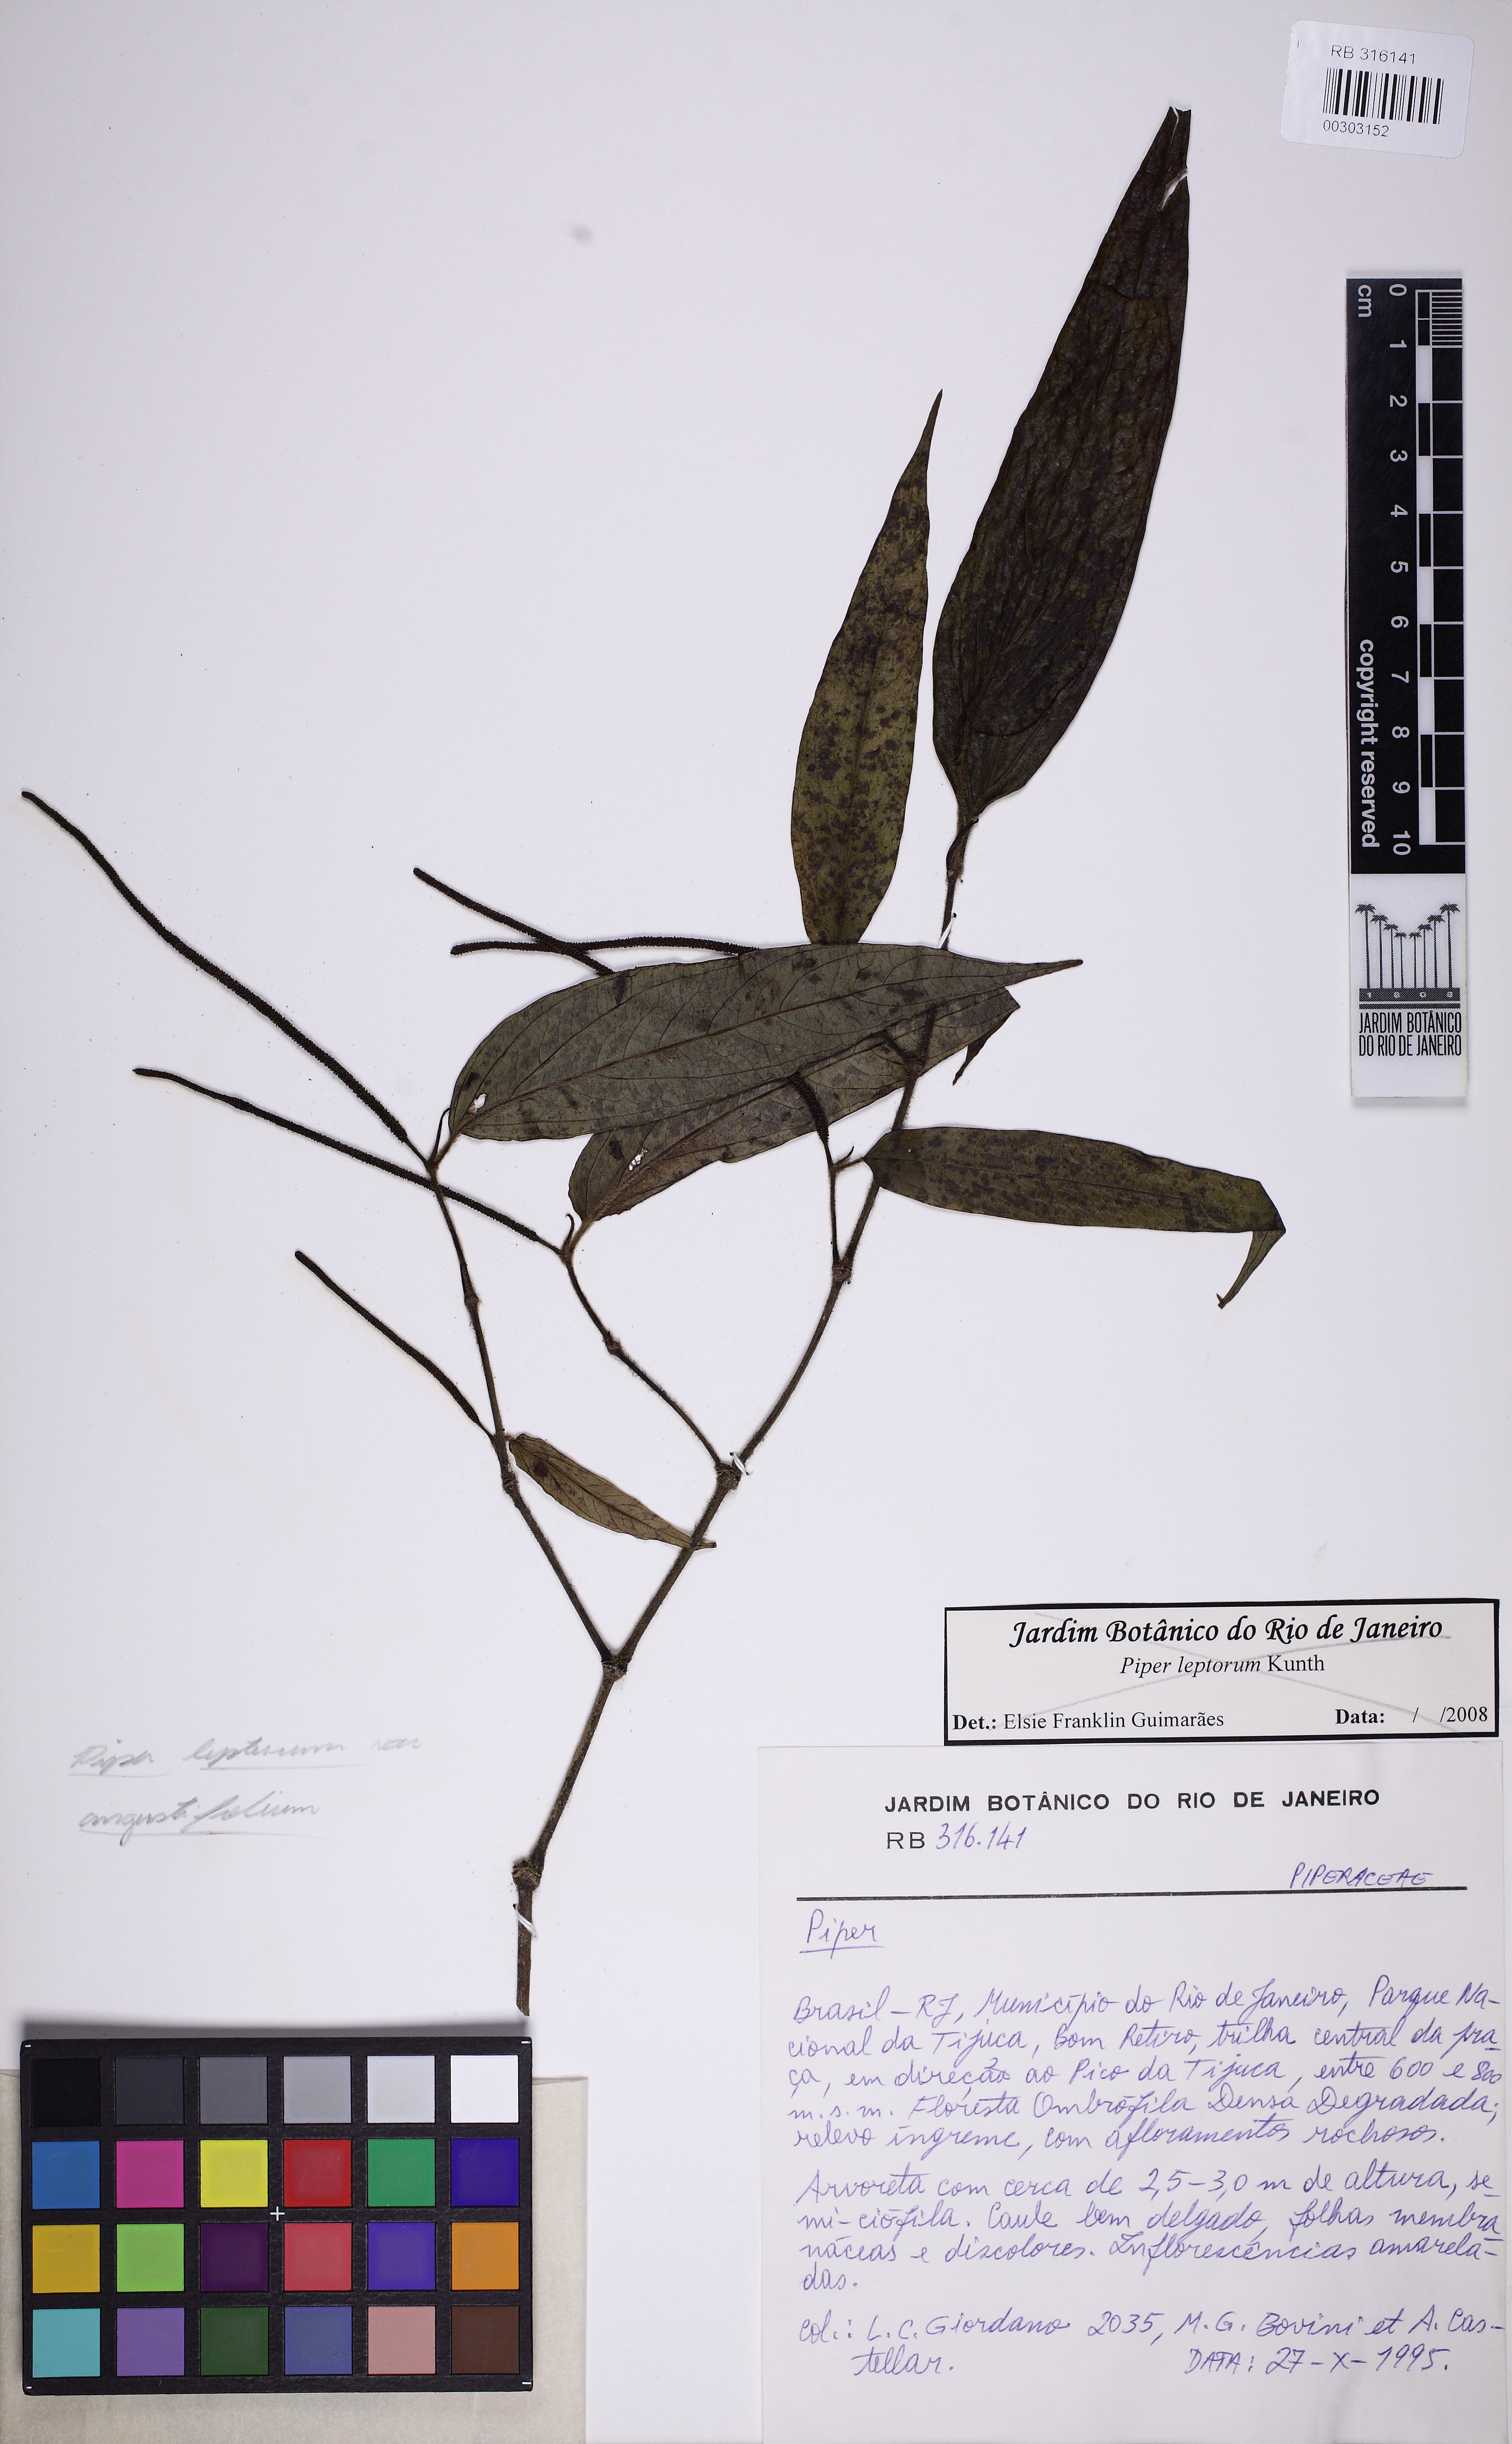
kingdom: Plantae
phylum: Tracheophyta
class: Magnoliopsida
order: Piperales
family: Piperaceae
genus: Piper
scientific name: Piper lepturum
